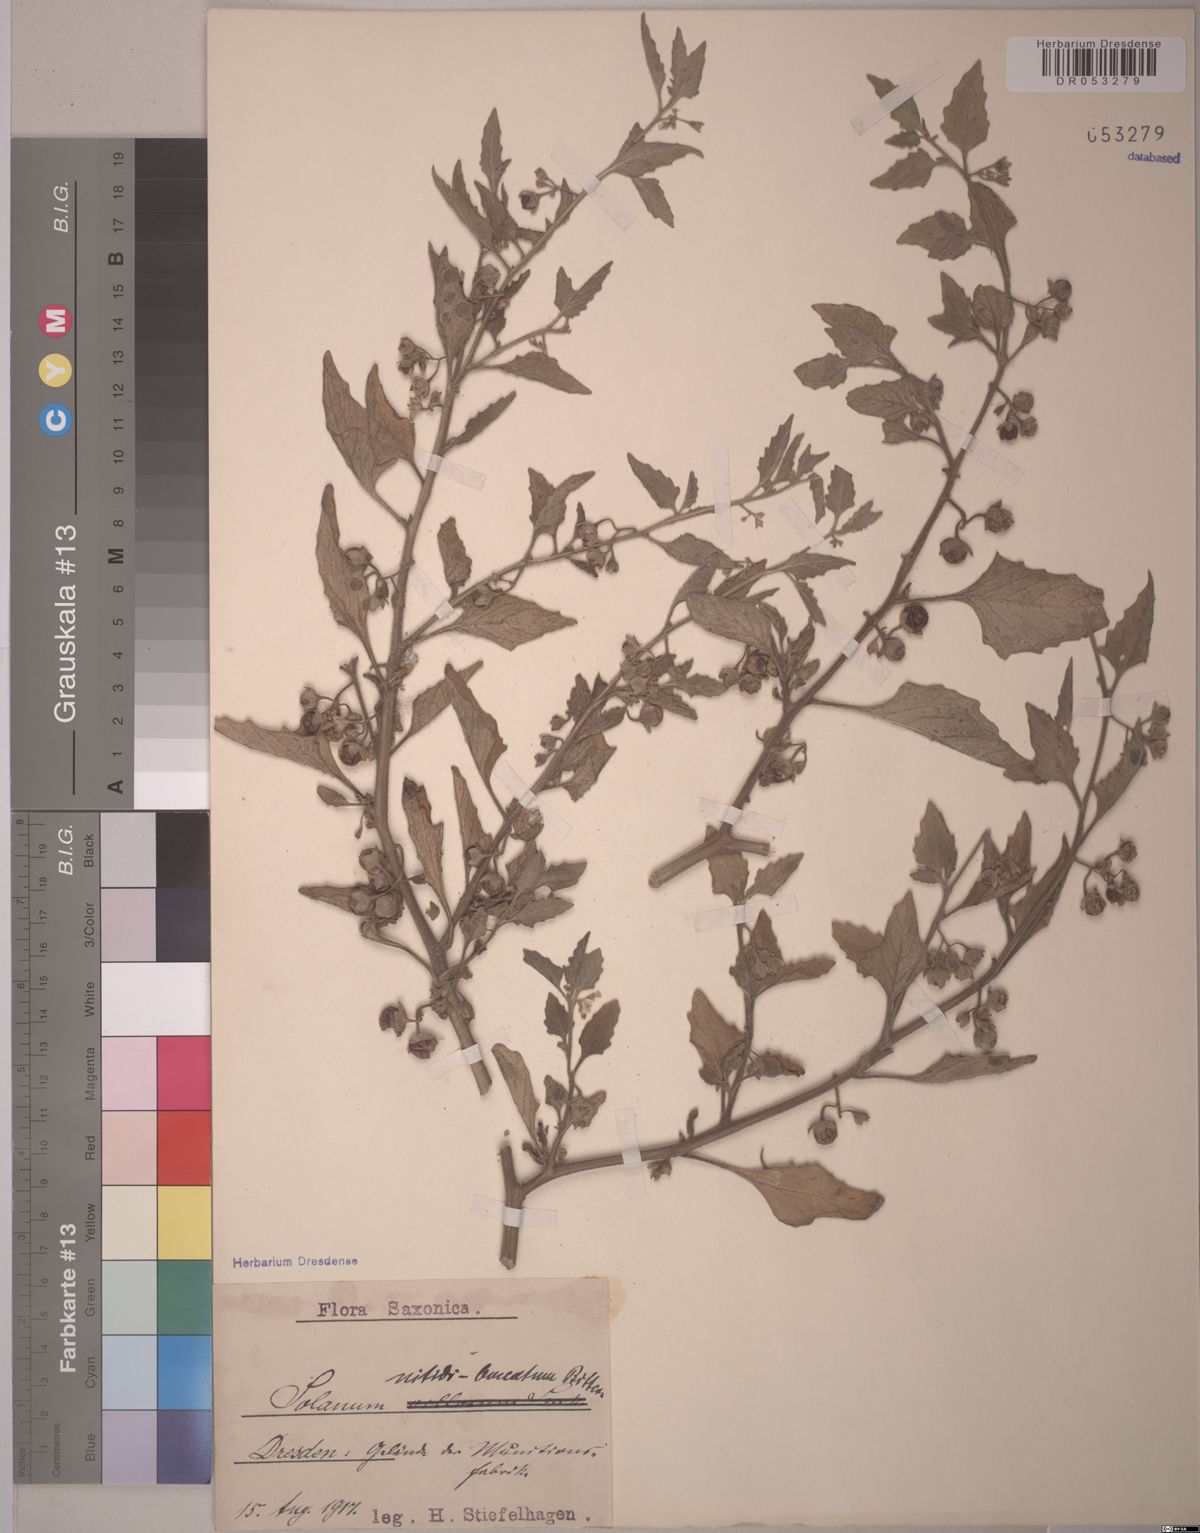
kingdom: Plantae
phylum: Tracheophyta
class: Magnoliopsida
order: Solanales
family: Solanaceae
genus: Solanum
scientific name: Solanum nitidibaccatum
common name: Hairy nightshade
